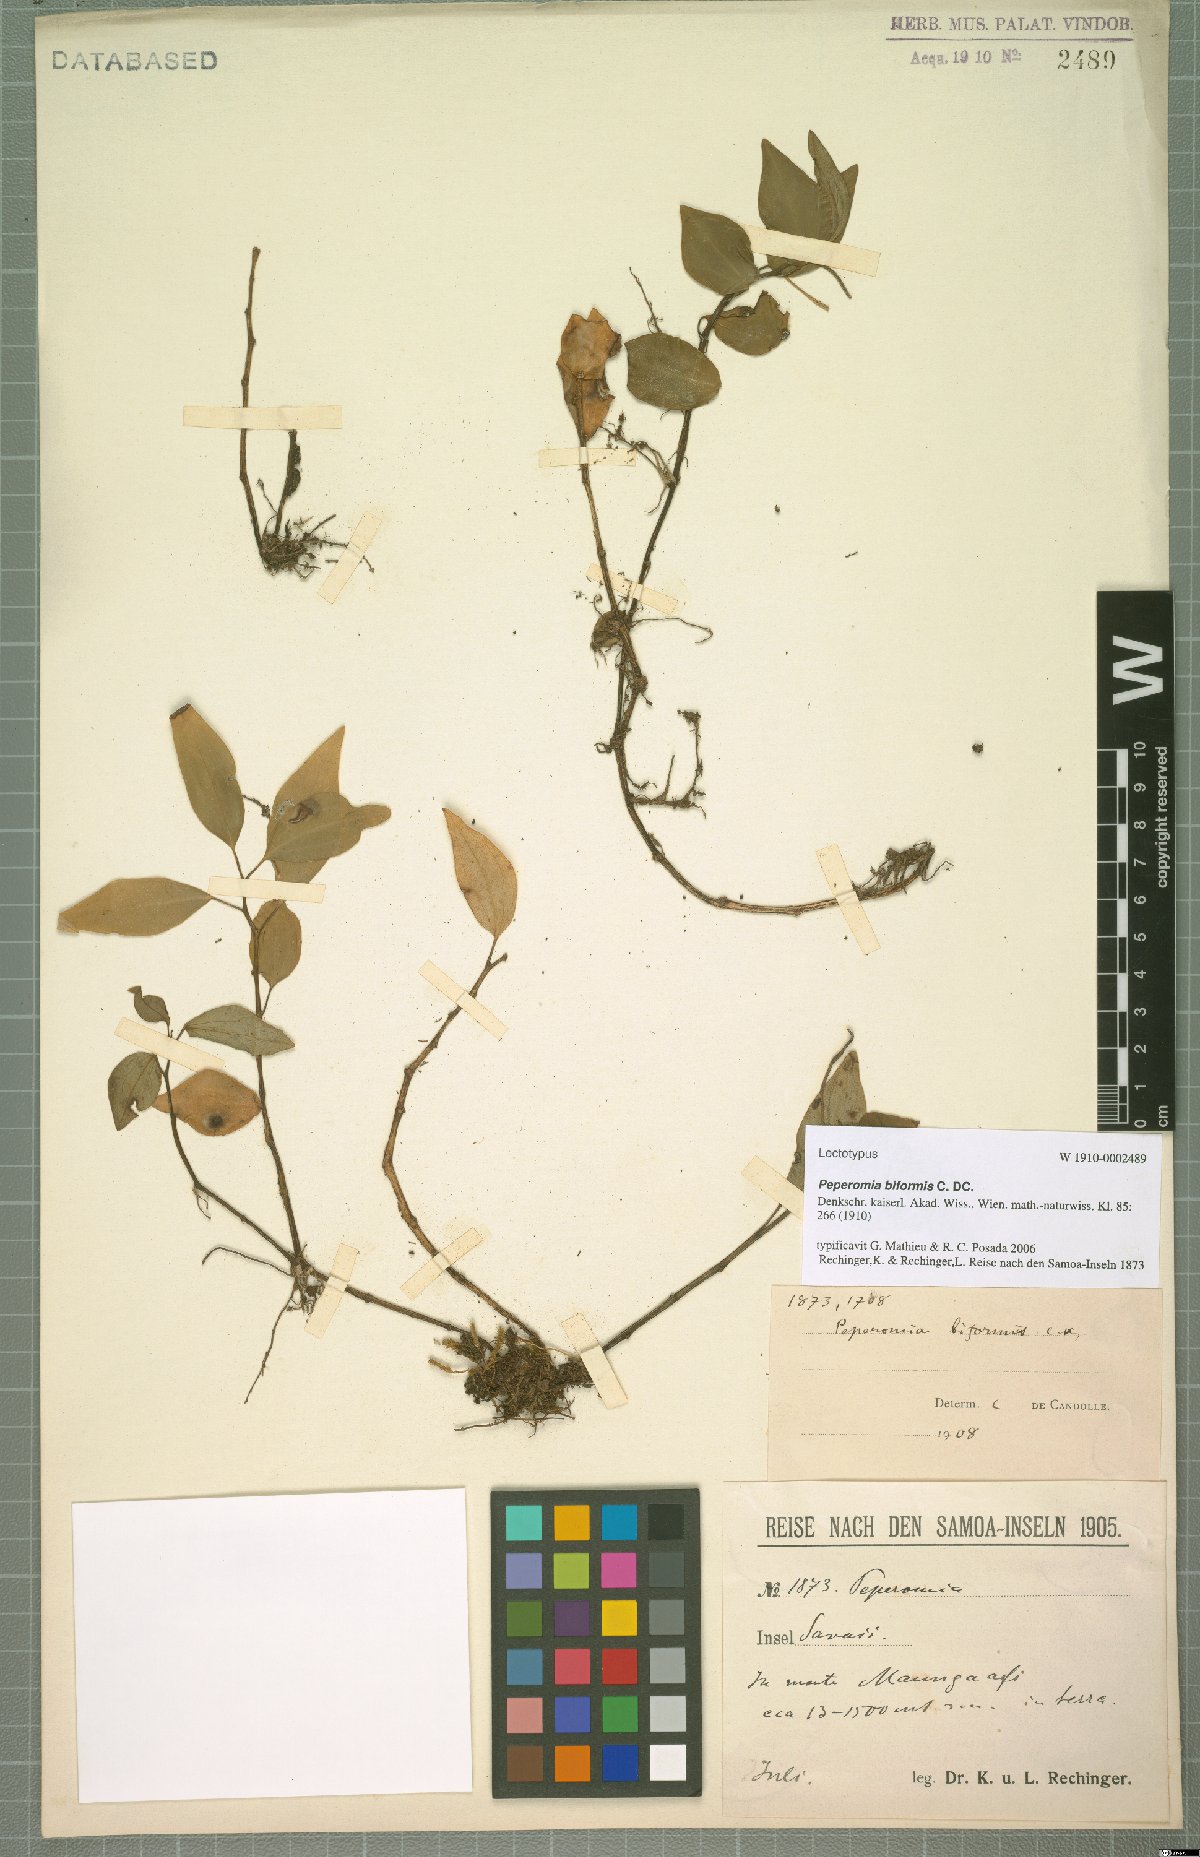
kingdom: Plantae
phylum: Tracheophyta
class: Magnoliopsida
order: Piperales
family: Piperaceae
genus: Peperomia
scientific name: Peperomia biformis
